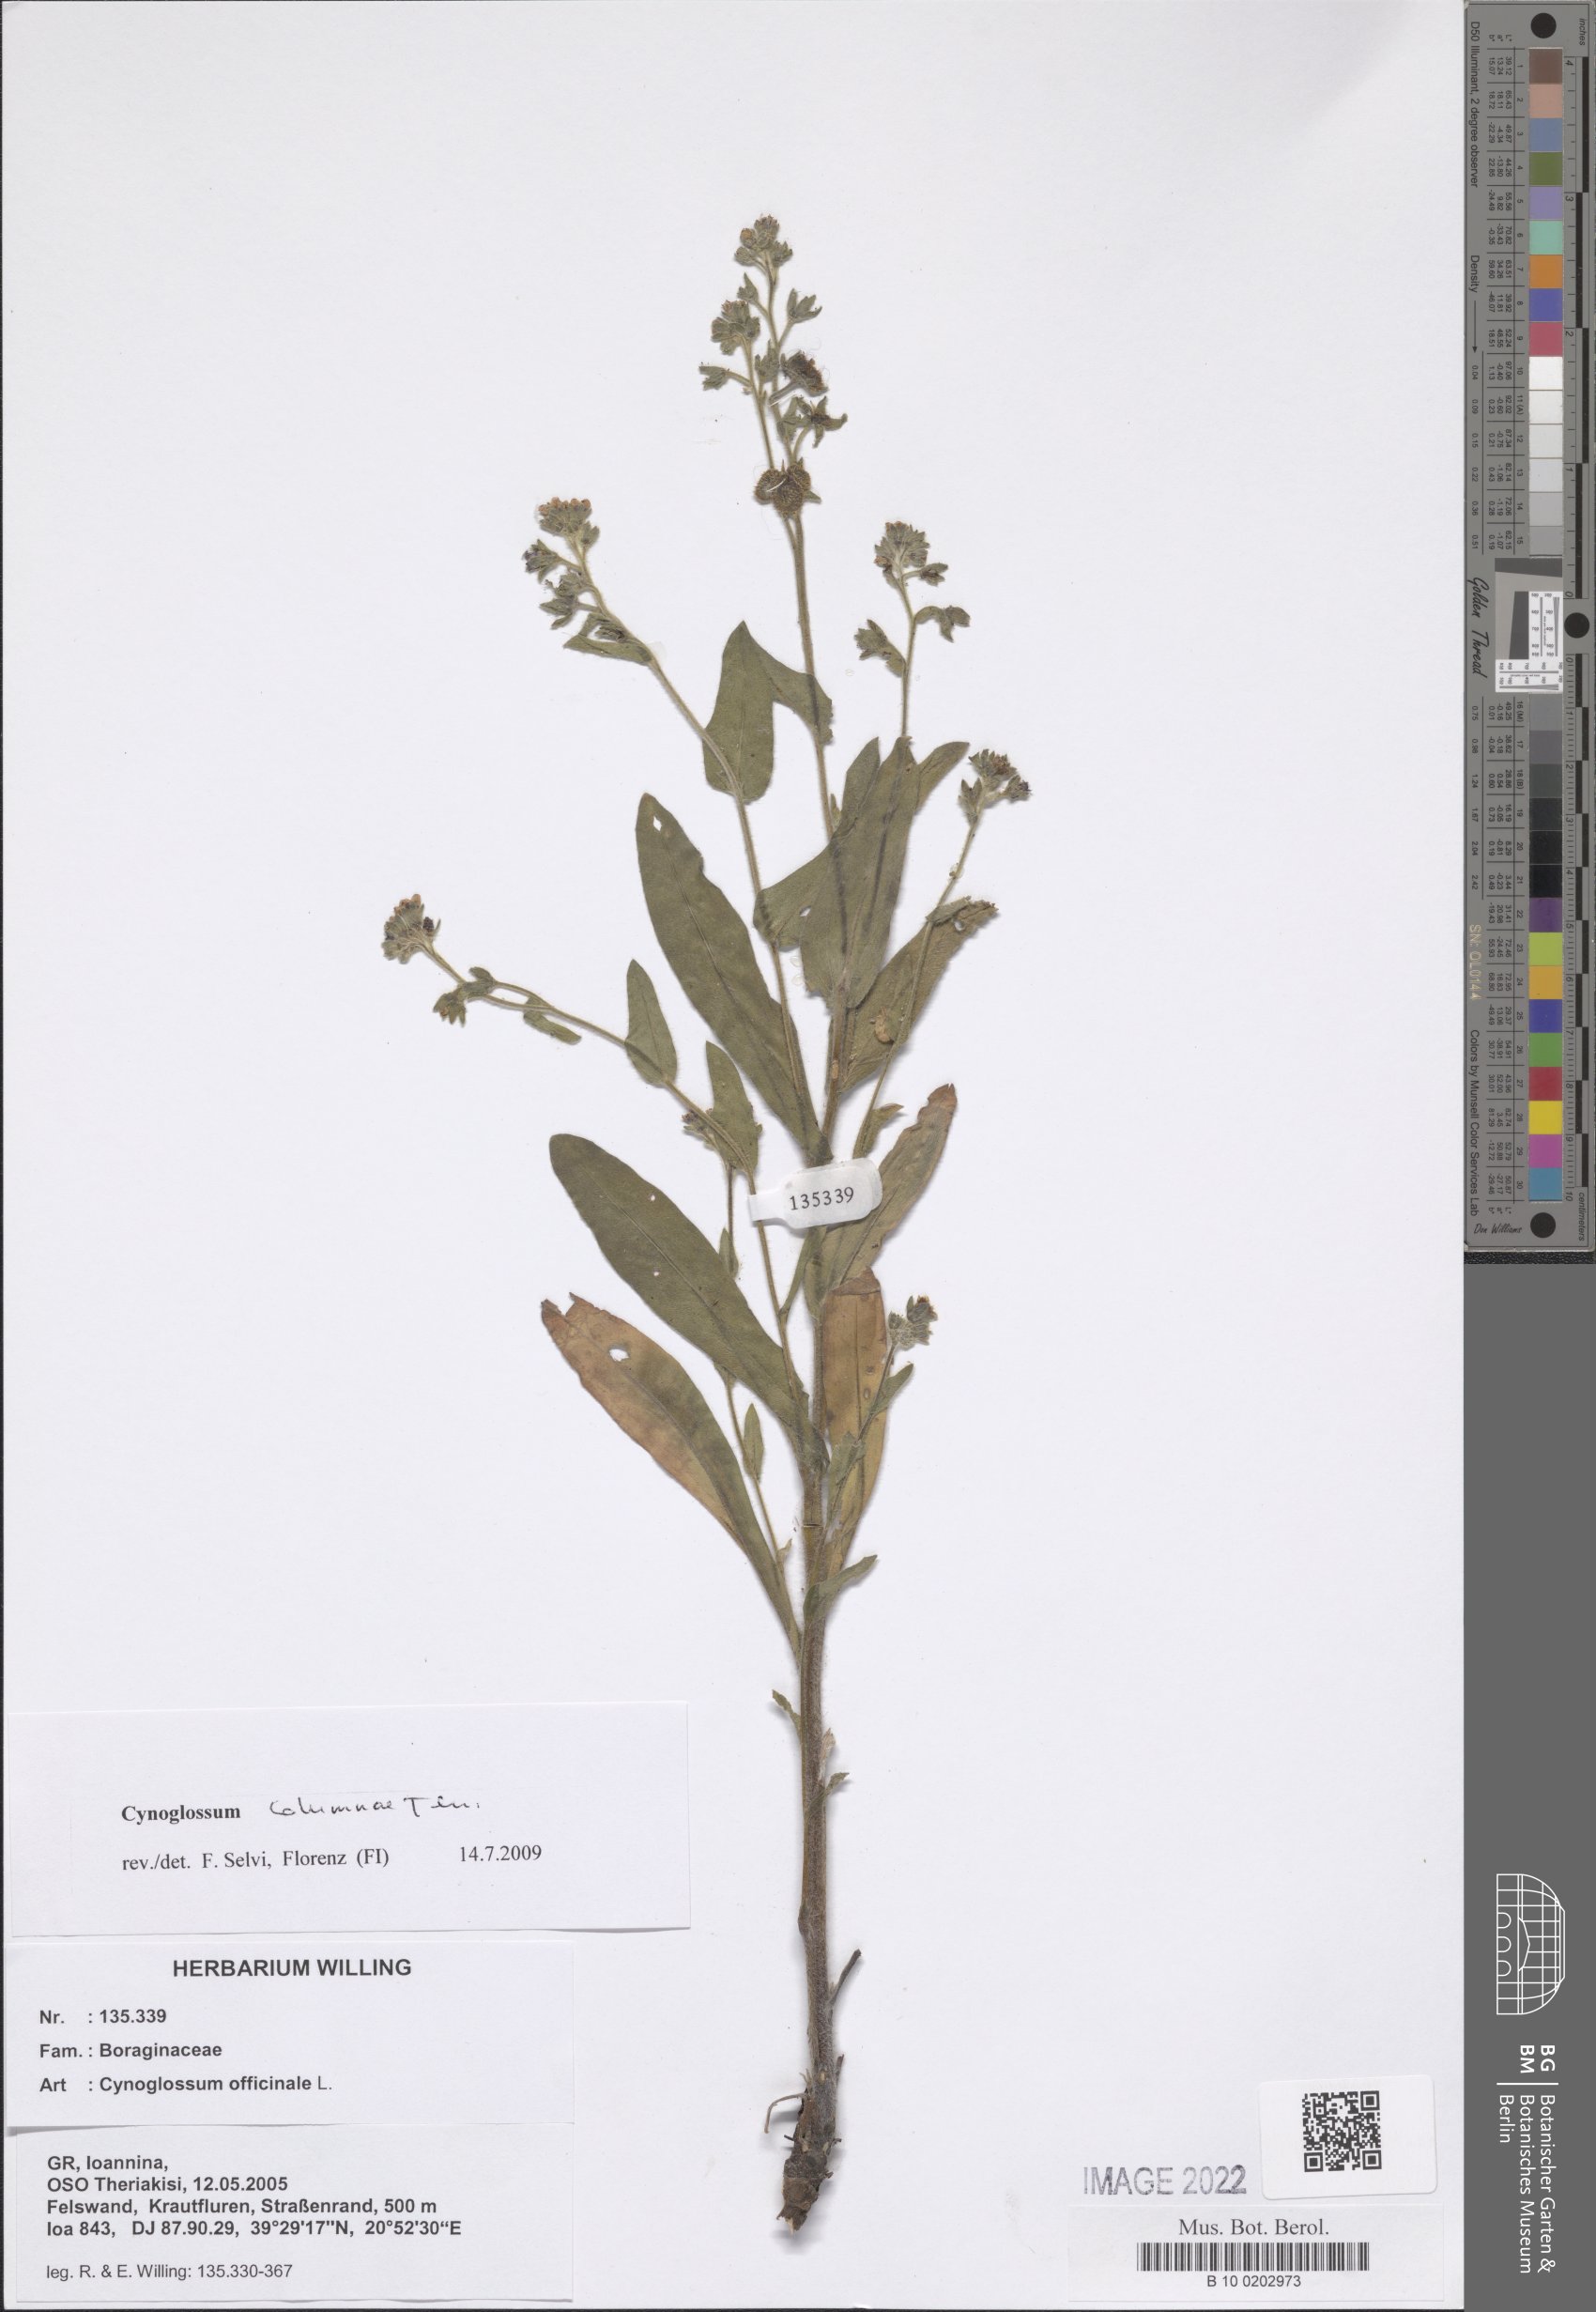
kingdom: Plantae
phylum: Tracheophyta
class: Magnoliopsida
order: Boraginales
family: Boraginaceae
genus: Rindera
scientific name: Rindera columnae
